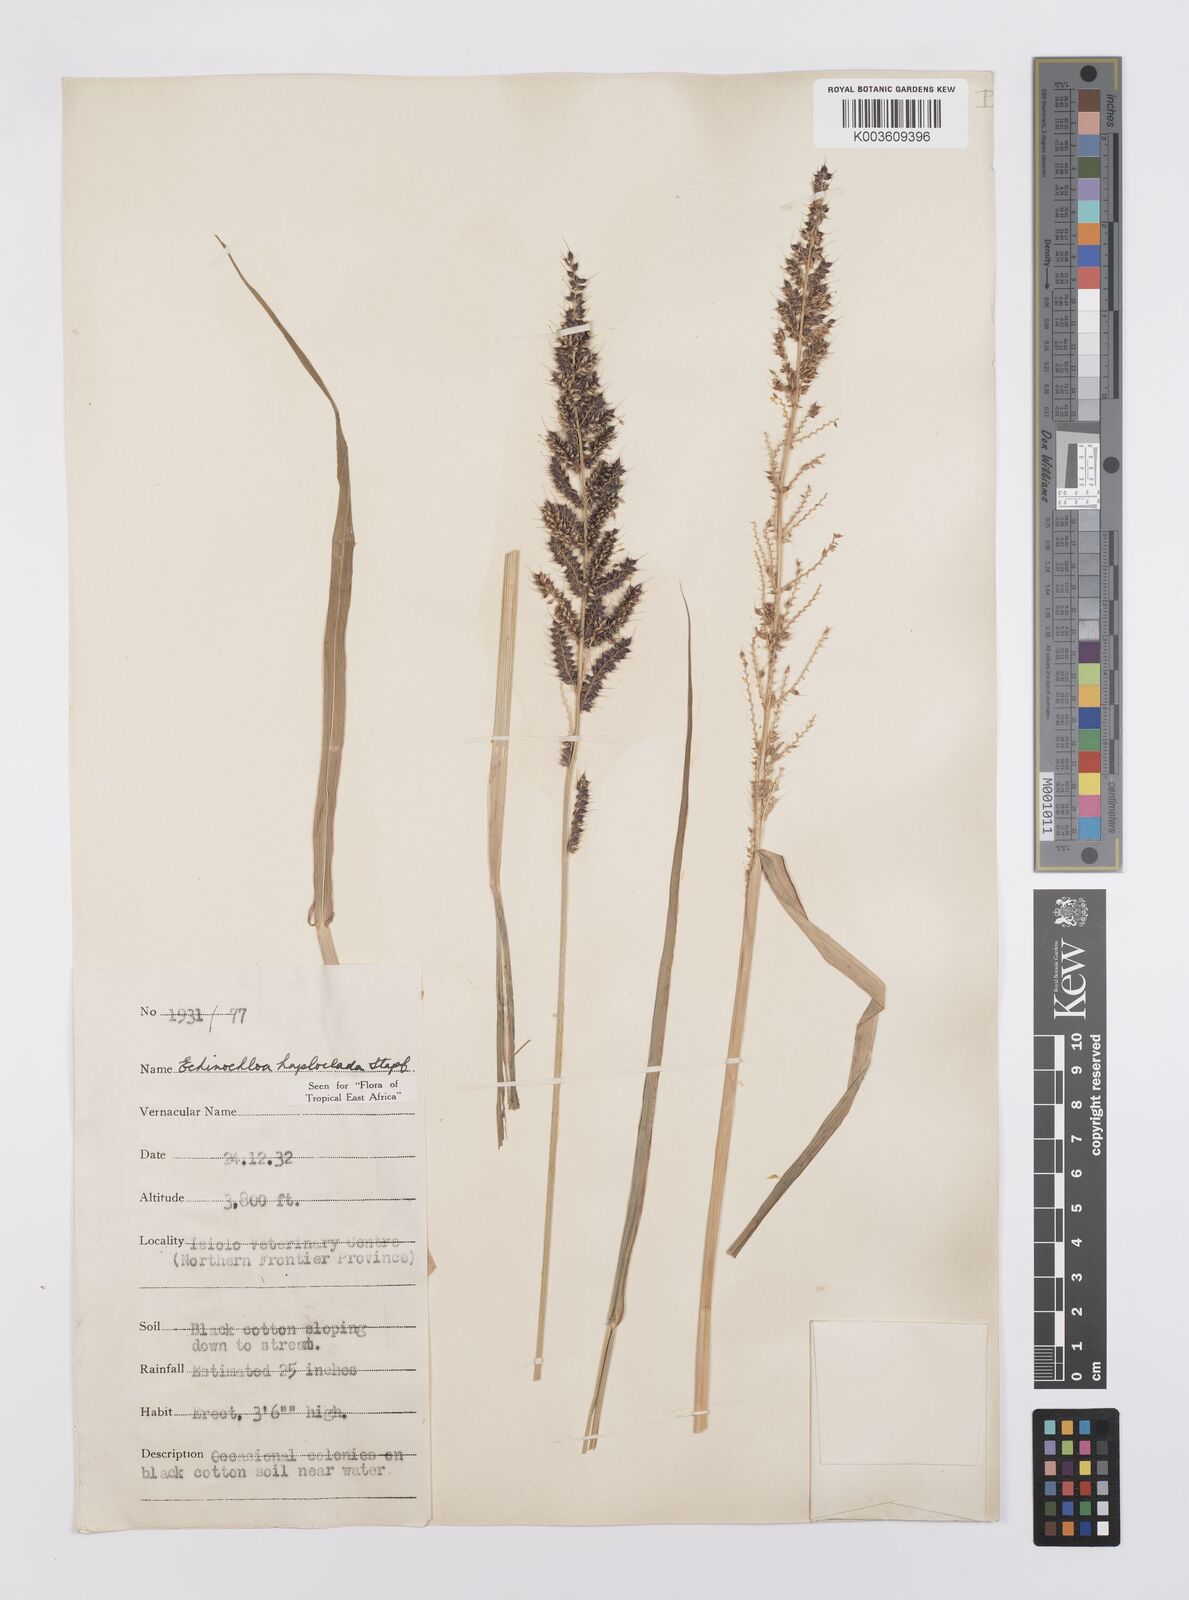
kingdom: Plantae
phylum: Tracheophyta
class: Liliopsida
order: Poales
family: Poaceae
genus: Echinochloa
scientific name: Echinochloa haploclada
